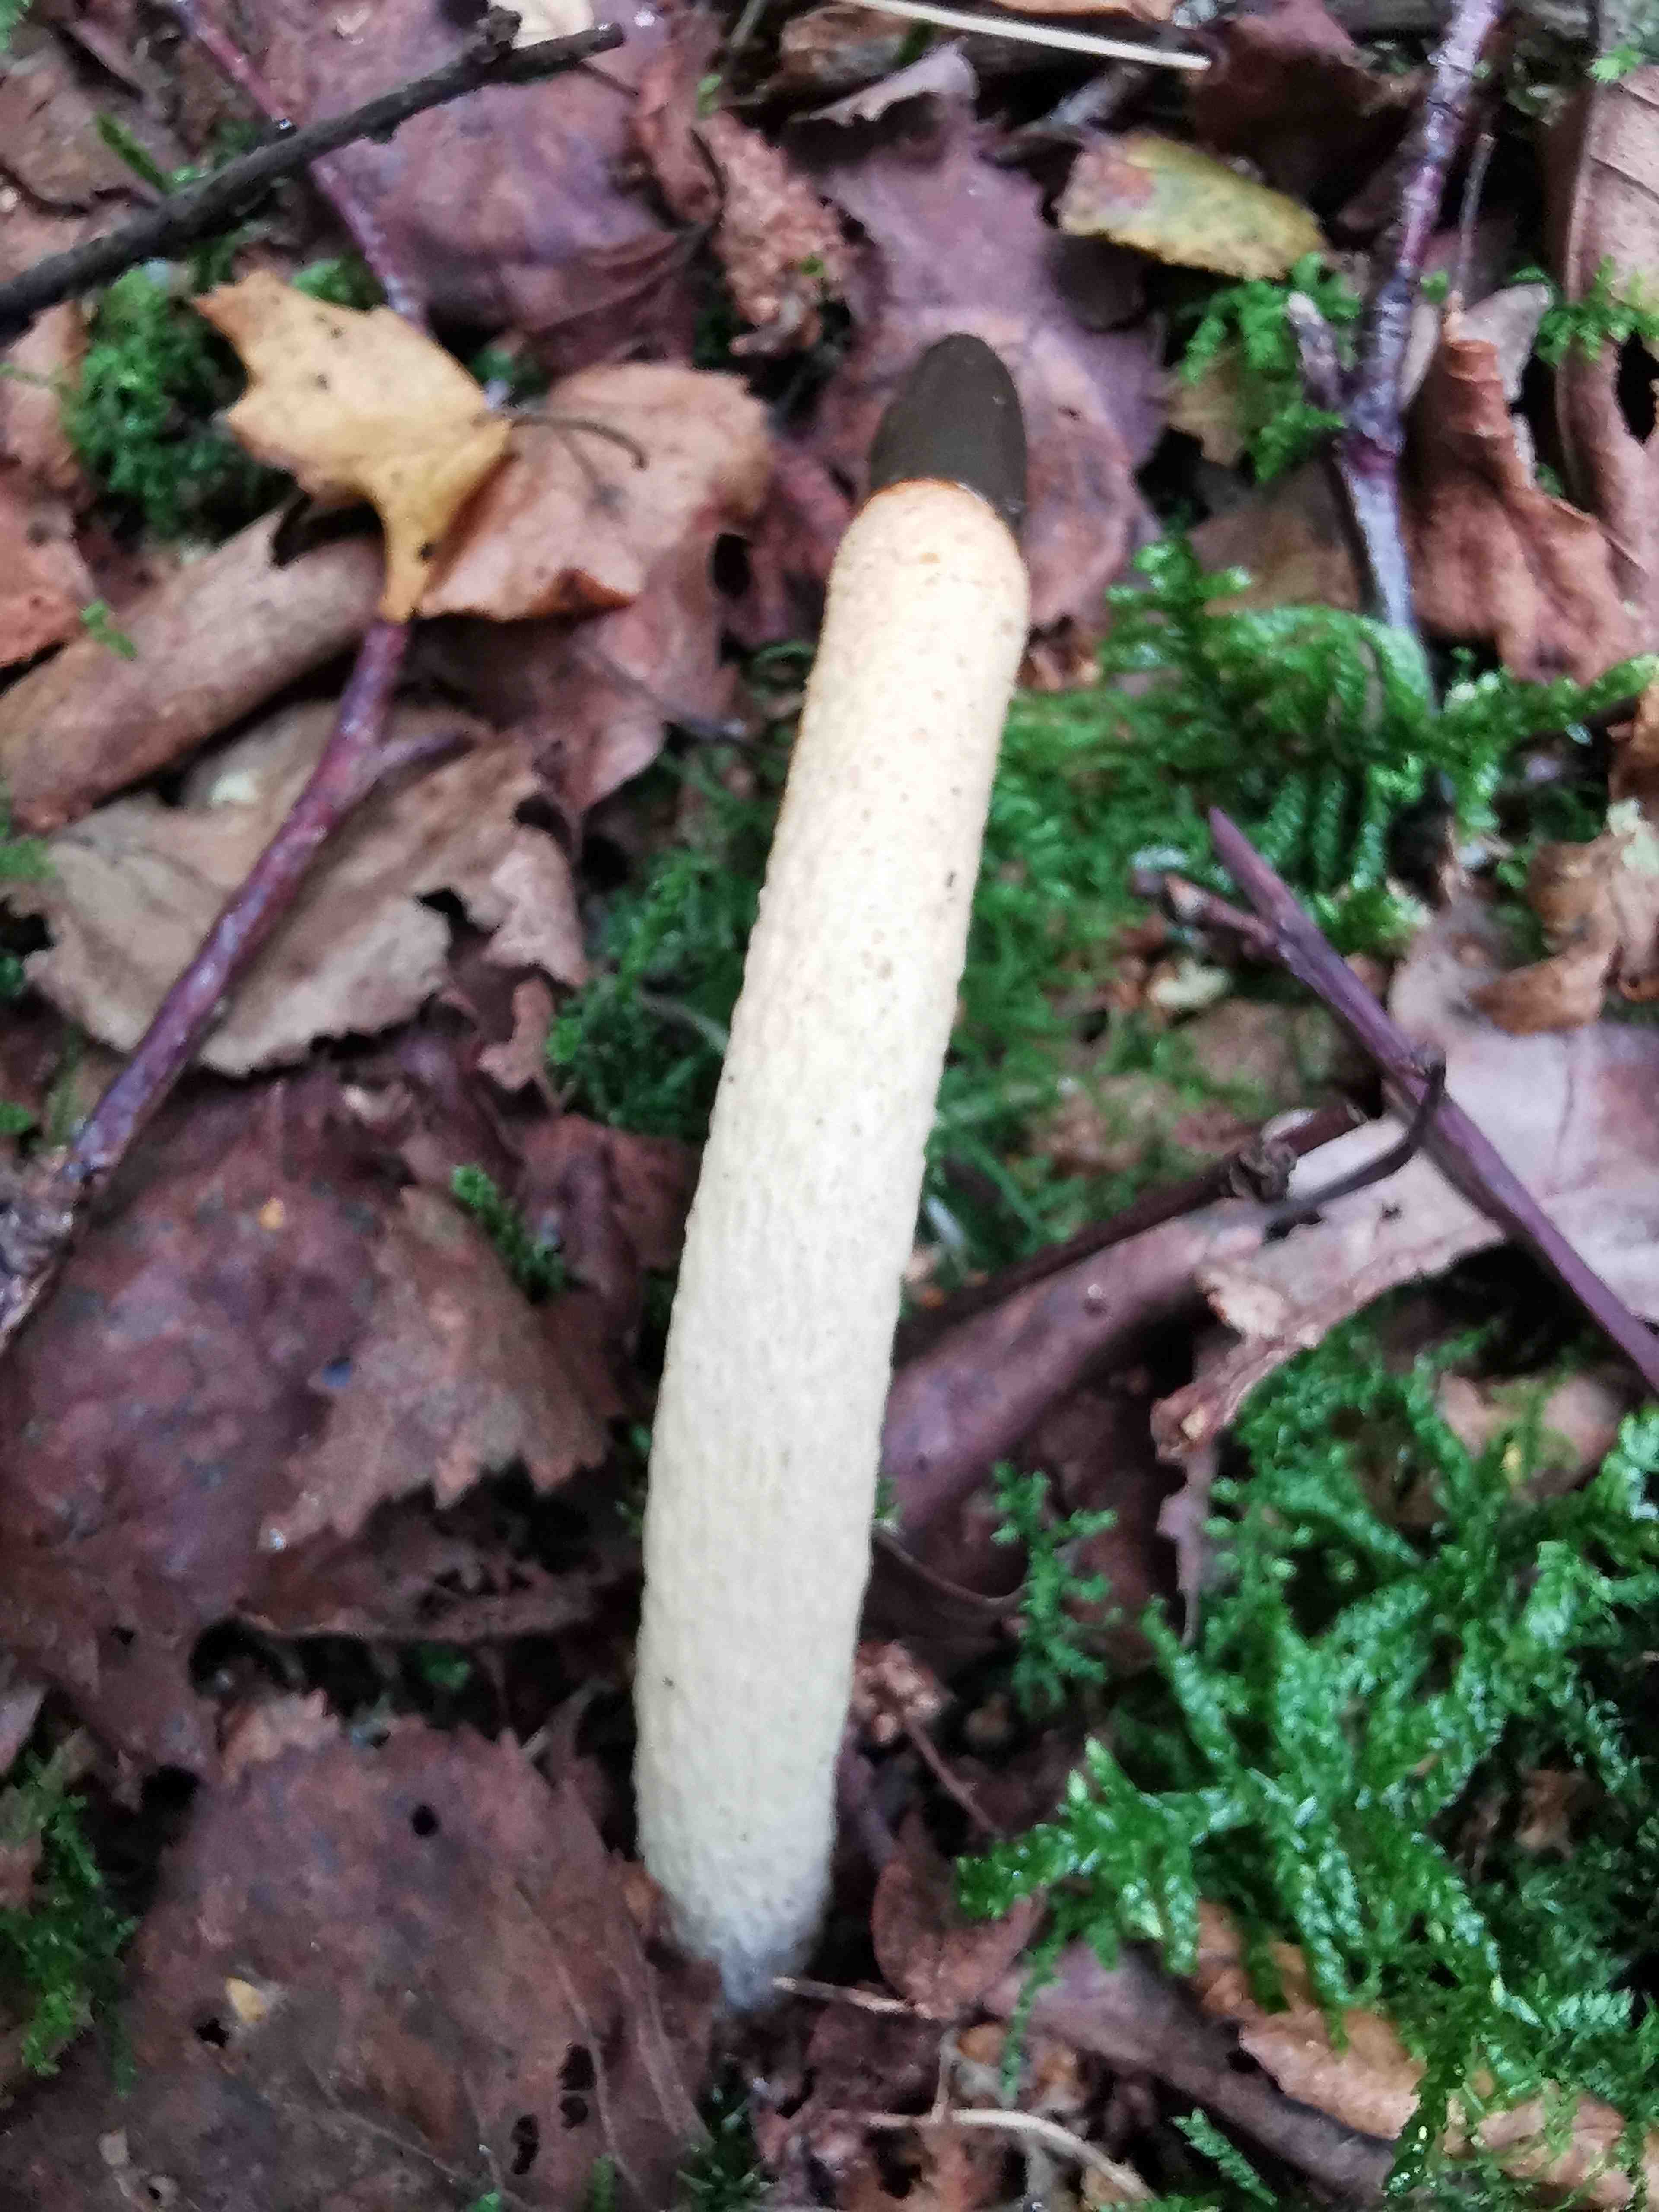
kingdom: Fungi
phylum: Basidiomycota
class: Agaricomycetes
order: Phallales
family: Phallaceae
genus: Mutinus
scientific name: Mutinus caninus
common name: hunde-stinksvamp
